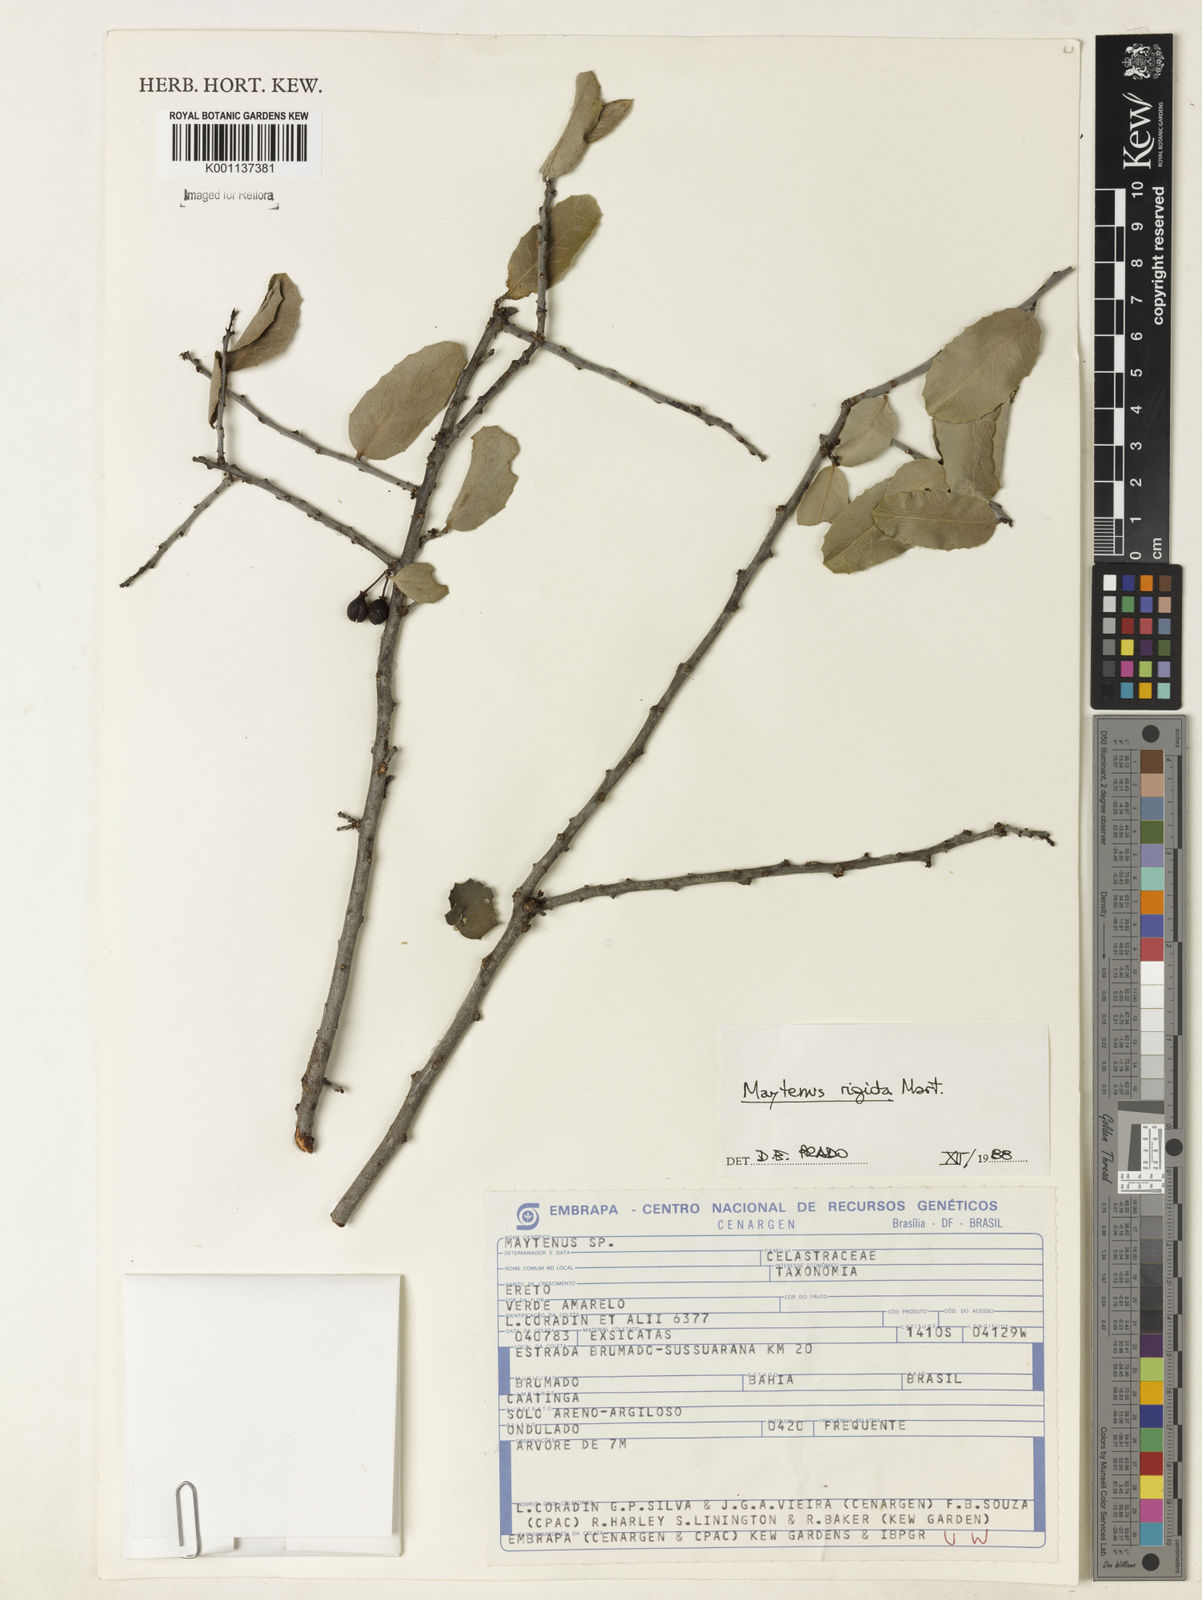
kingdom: Plantae
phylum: Tracheophyta
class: Magnoliopsida
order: Celastrales
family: Celastraceae
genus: Monteverdia
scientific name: Monteverdia rigida
